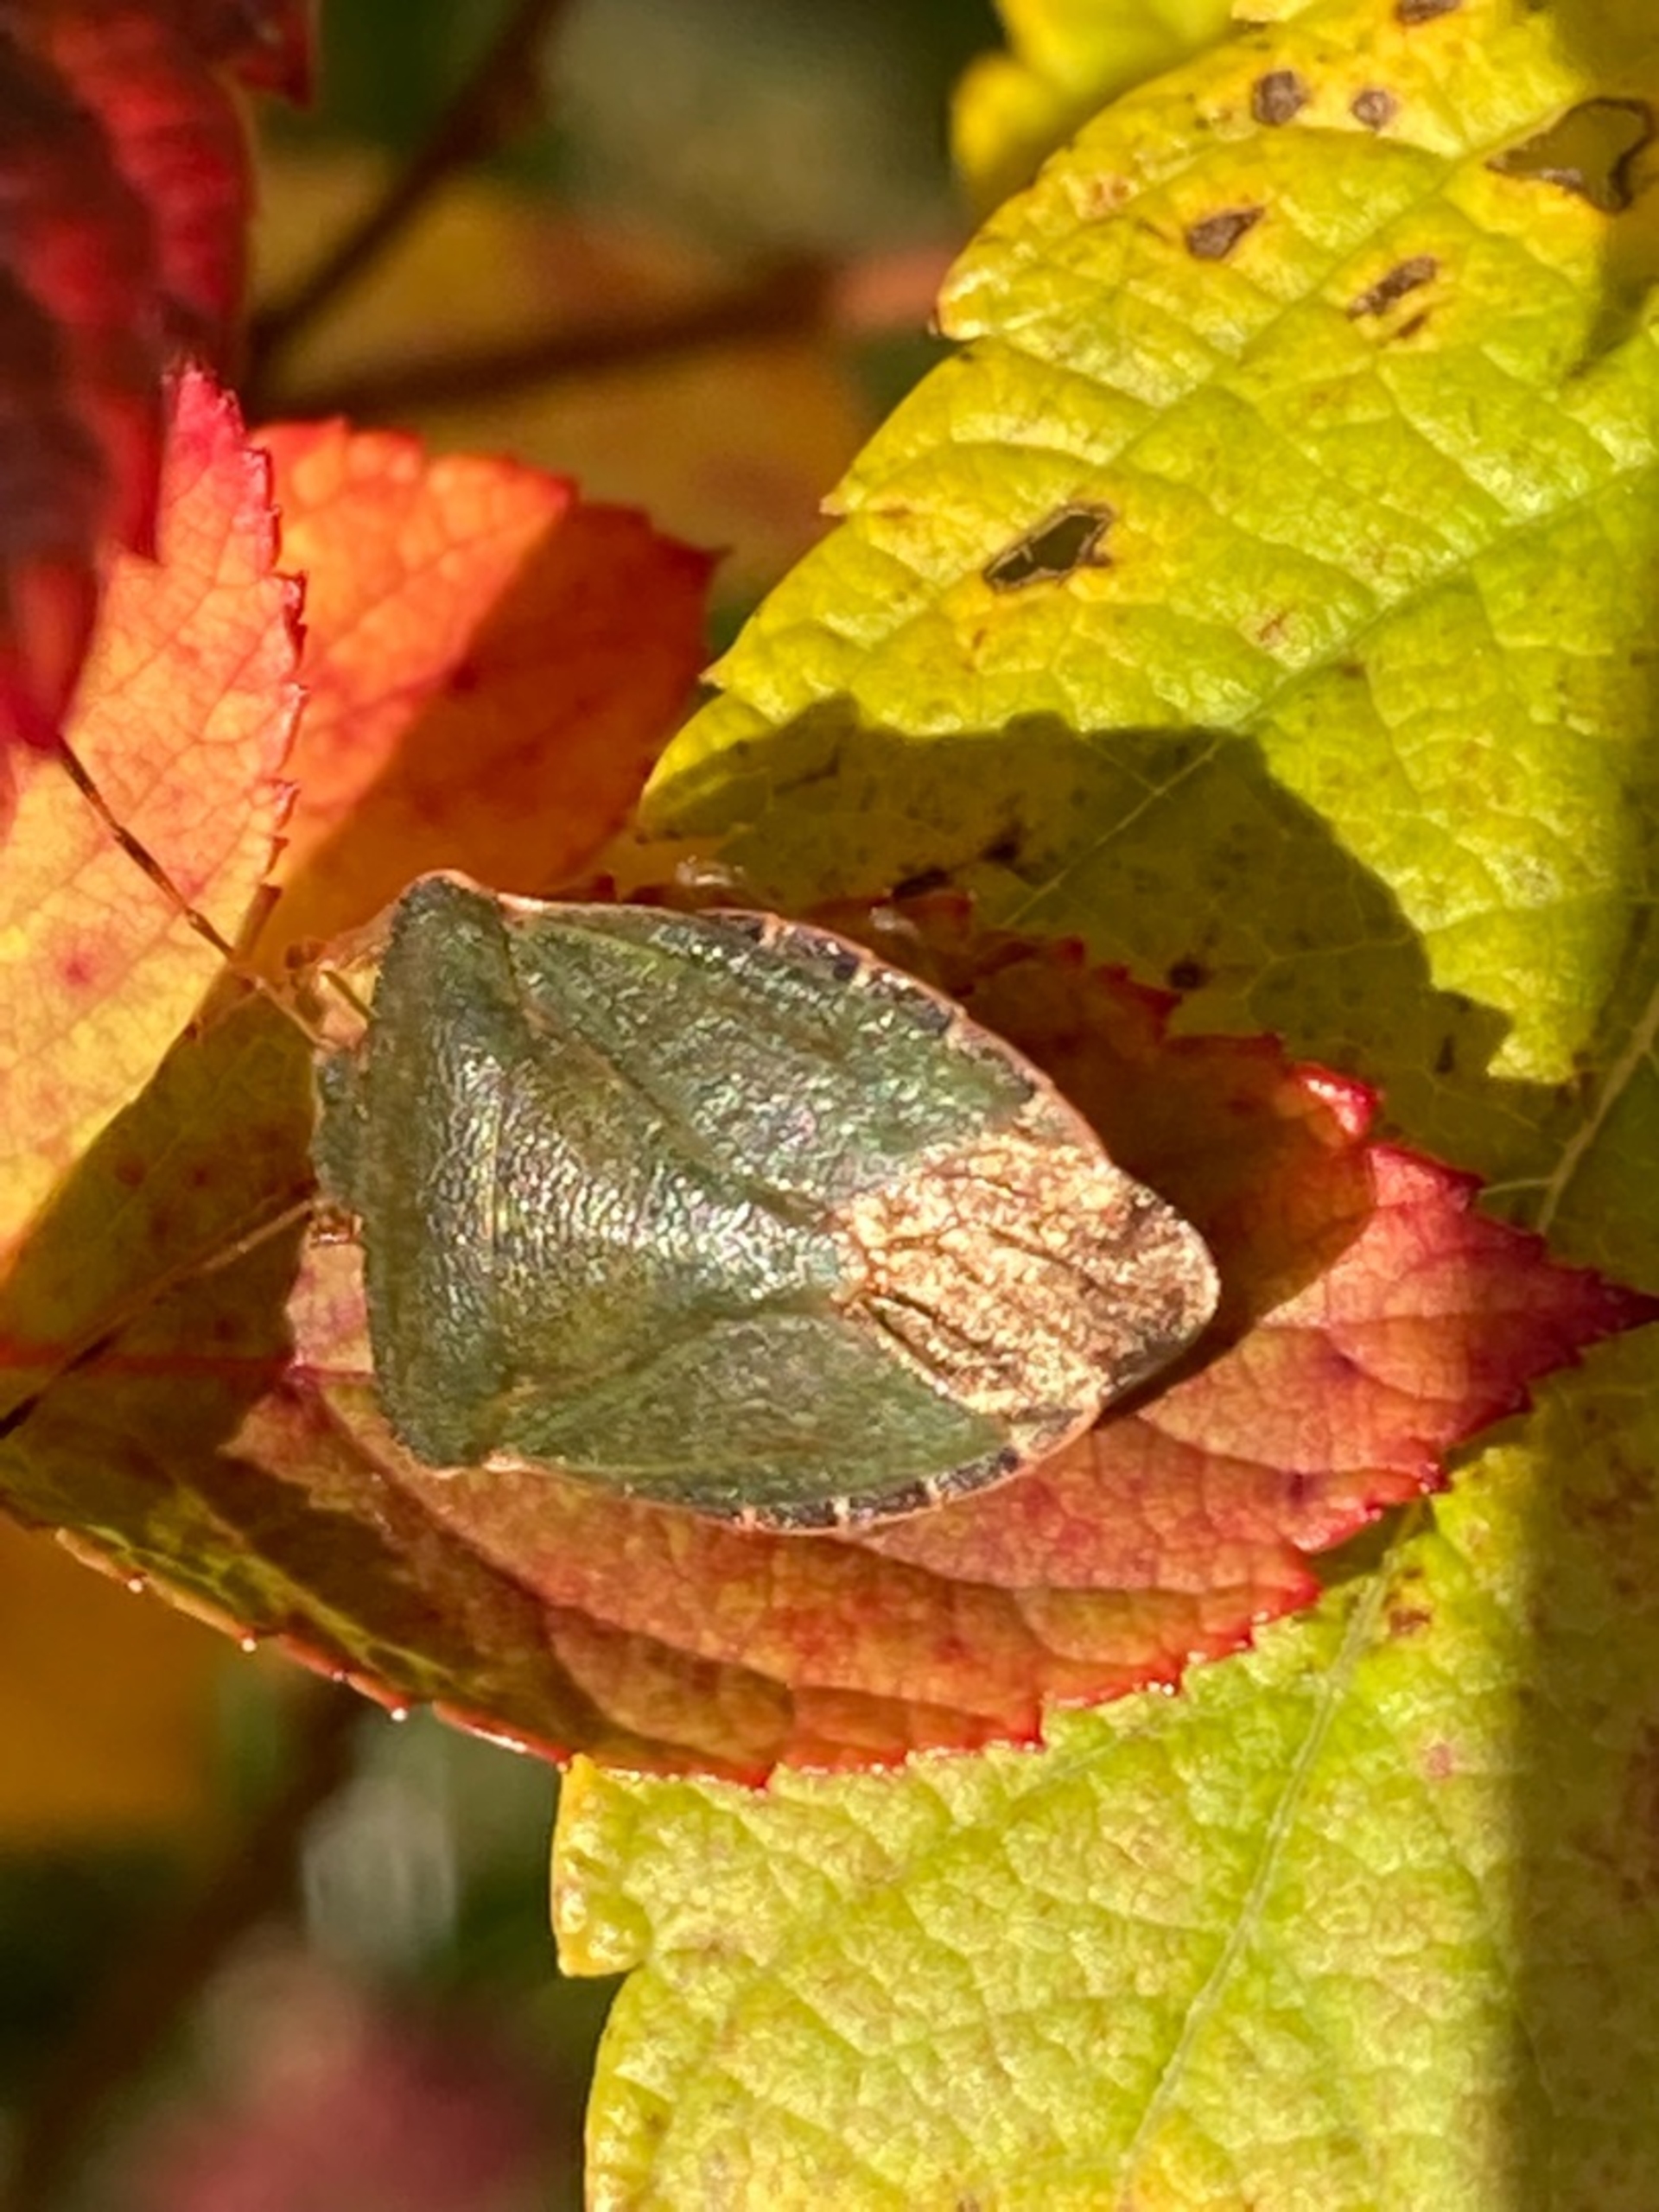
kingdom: Animalia
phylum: Arthropoda
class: Insecta
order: Hemiptera
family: Pentatomidae
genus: Palomena
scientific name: Palomena prasina
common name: Grøn bredtæge
